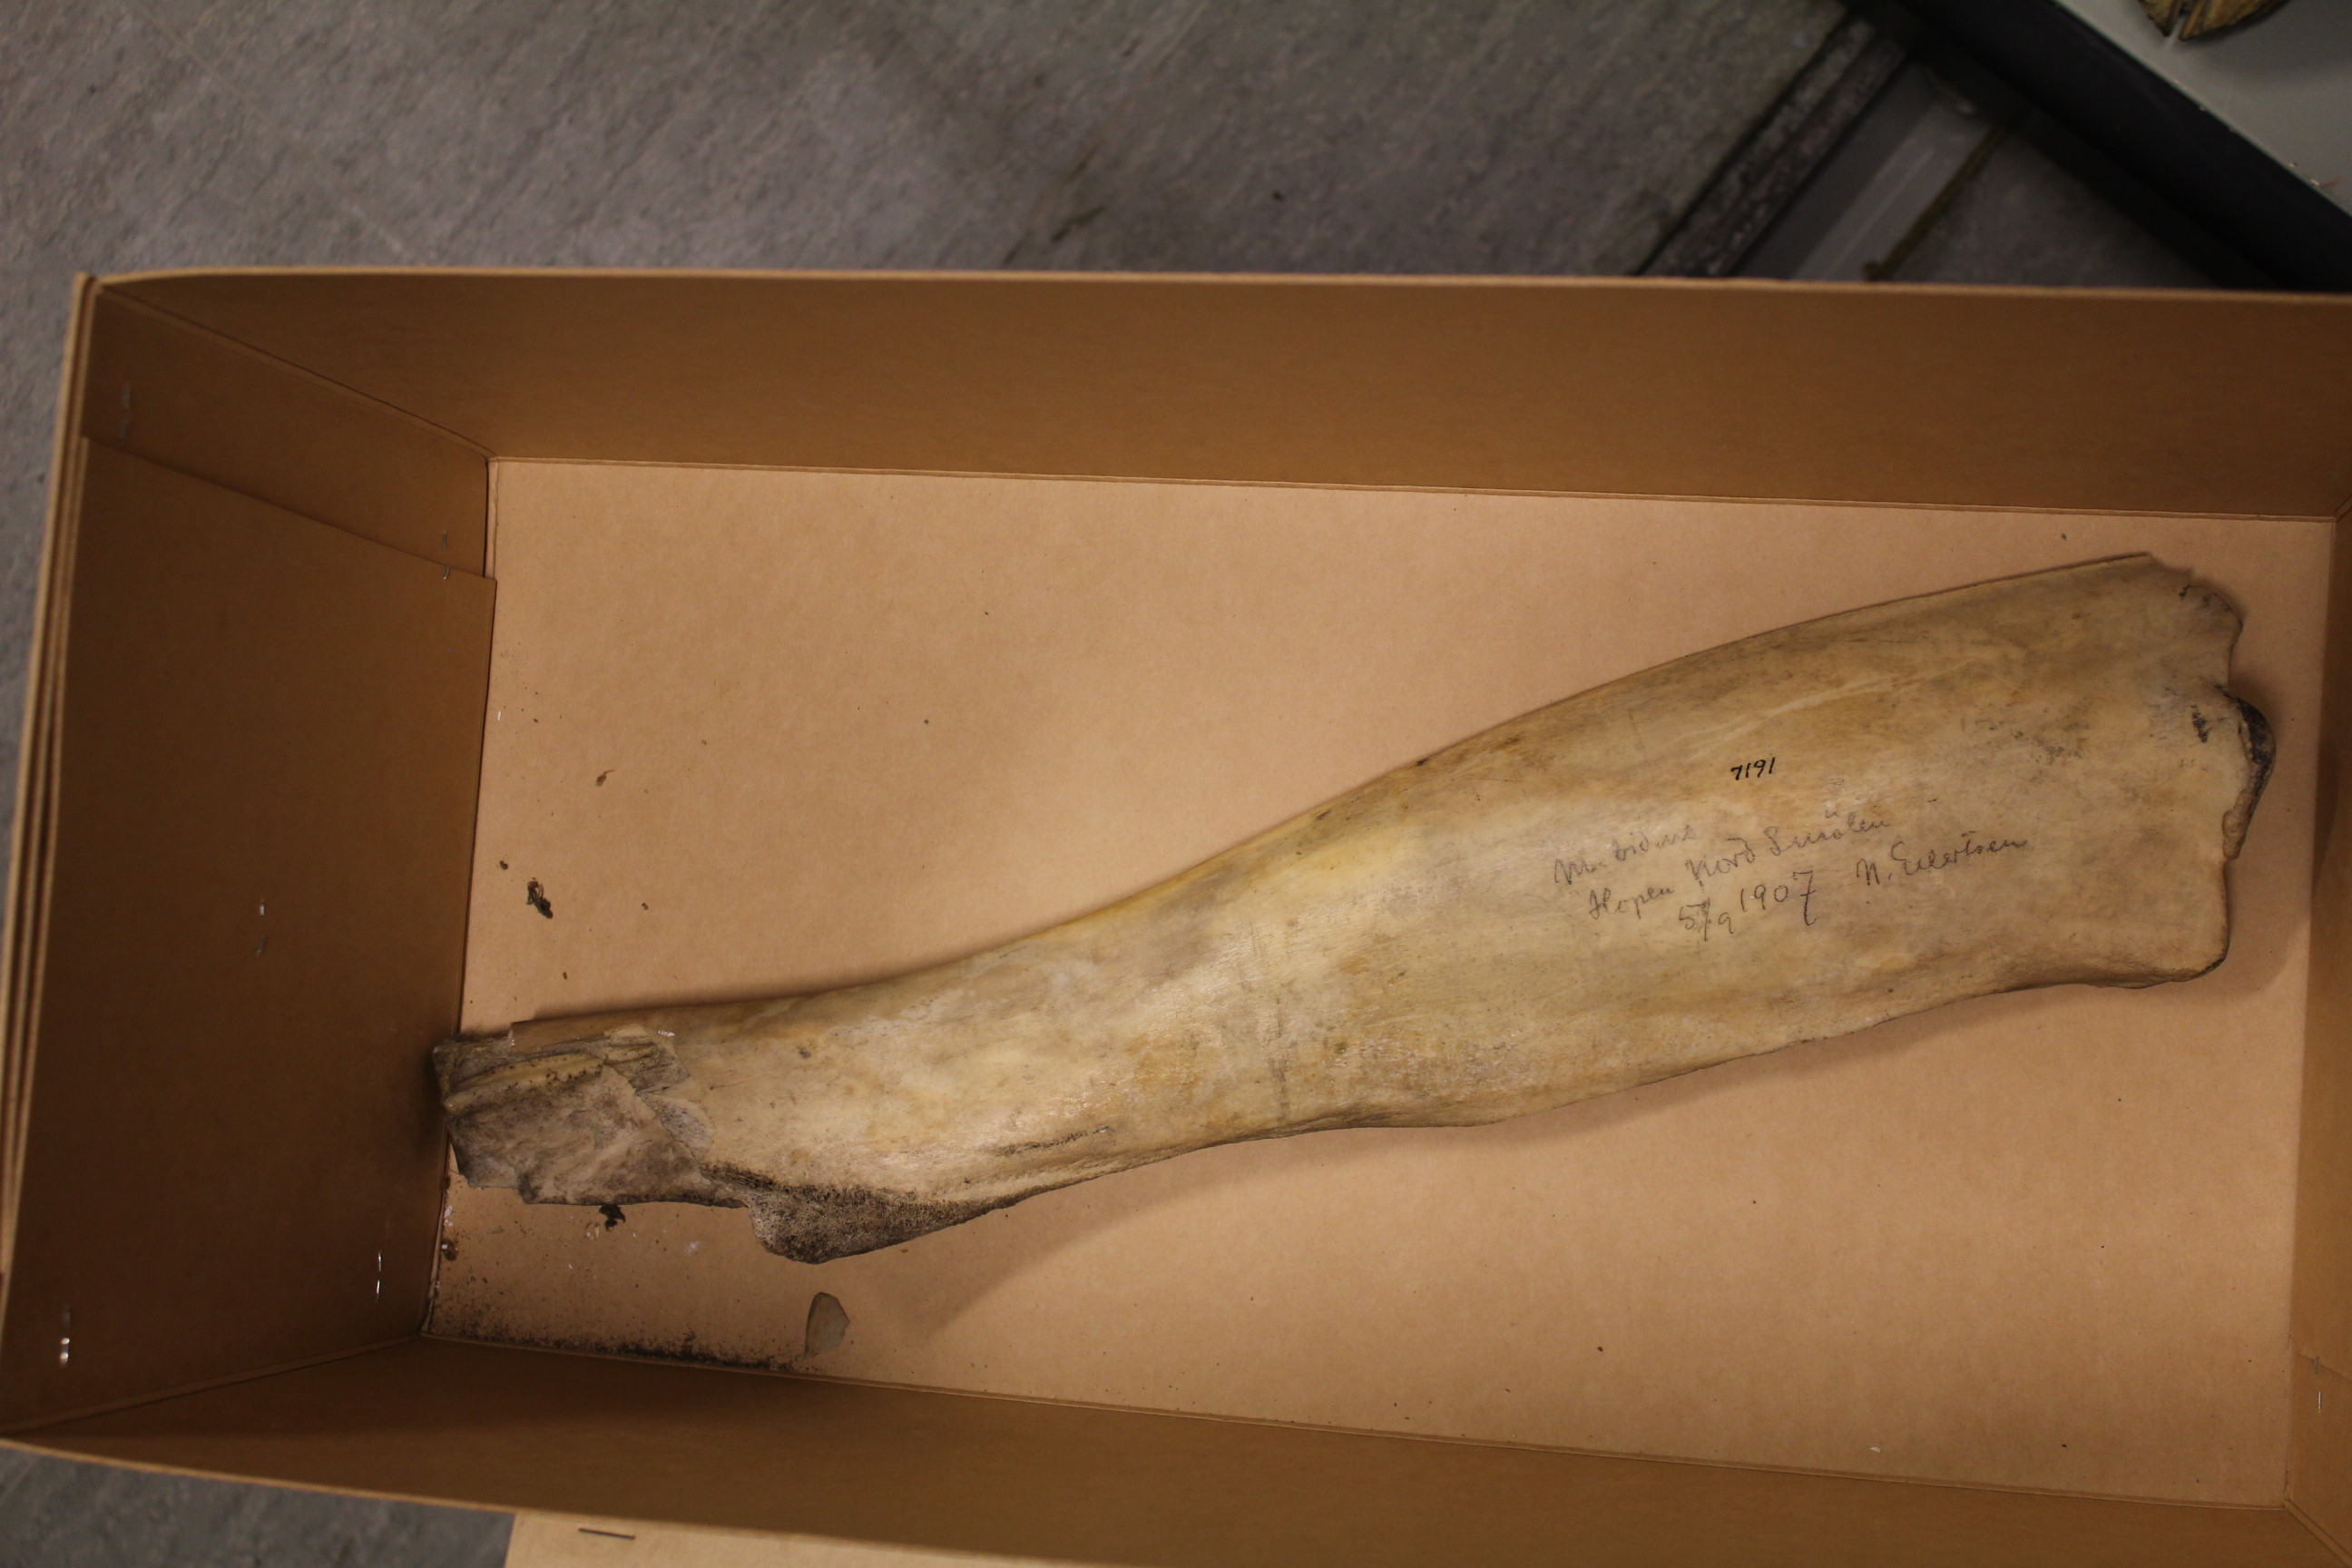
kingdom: Animalia
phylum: Chordata
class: Mammalia
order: Cetacea
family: Hyperoodontidae
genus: Mesoplodon
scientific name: Mesoplodon bidens
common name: Sowerby's beaked whale
